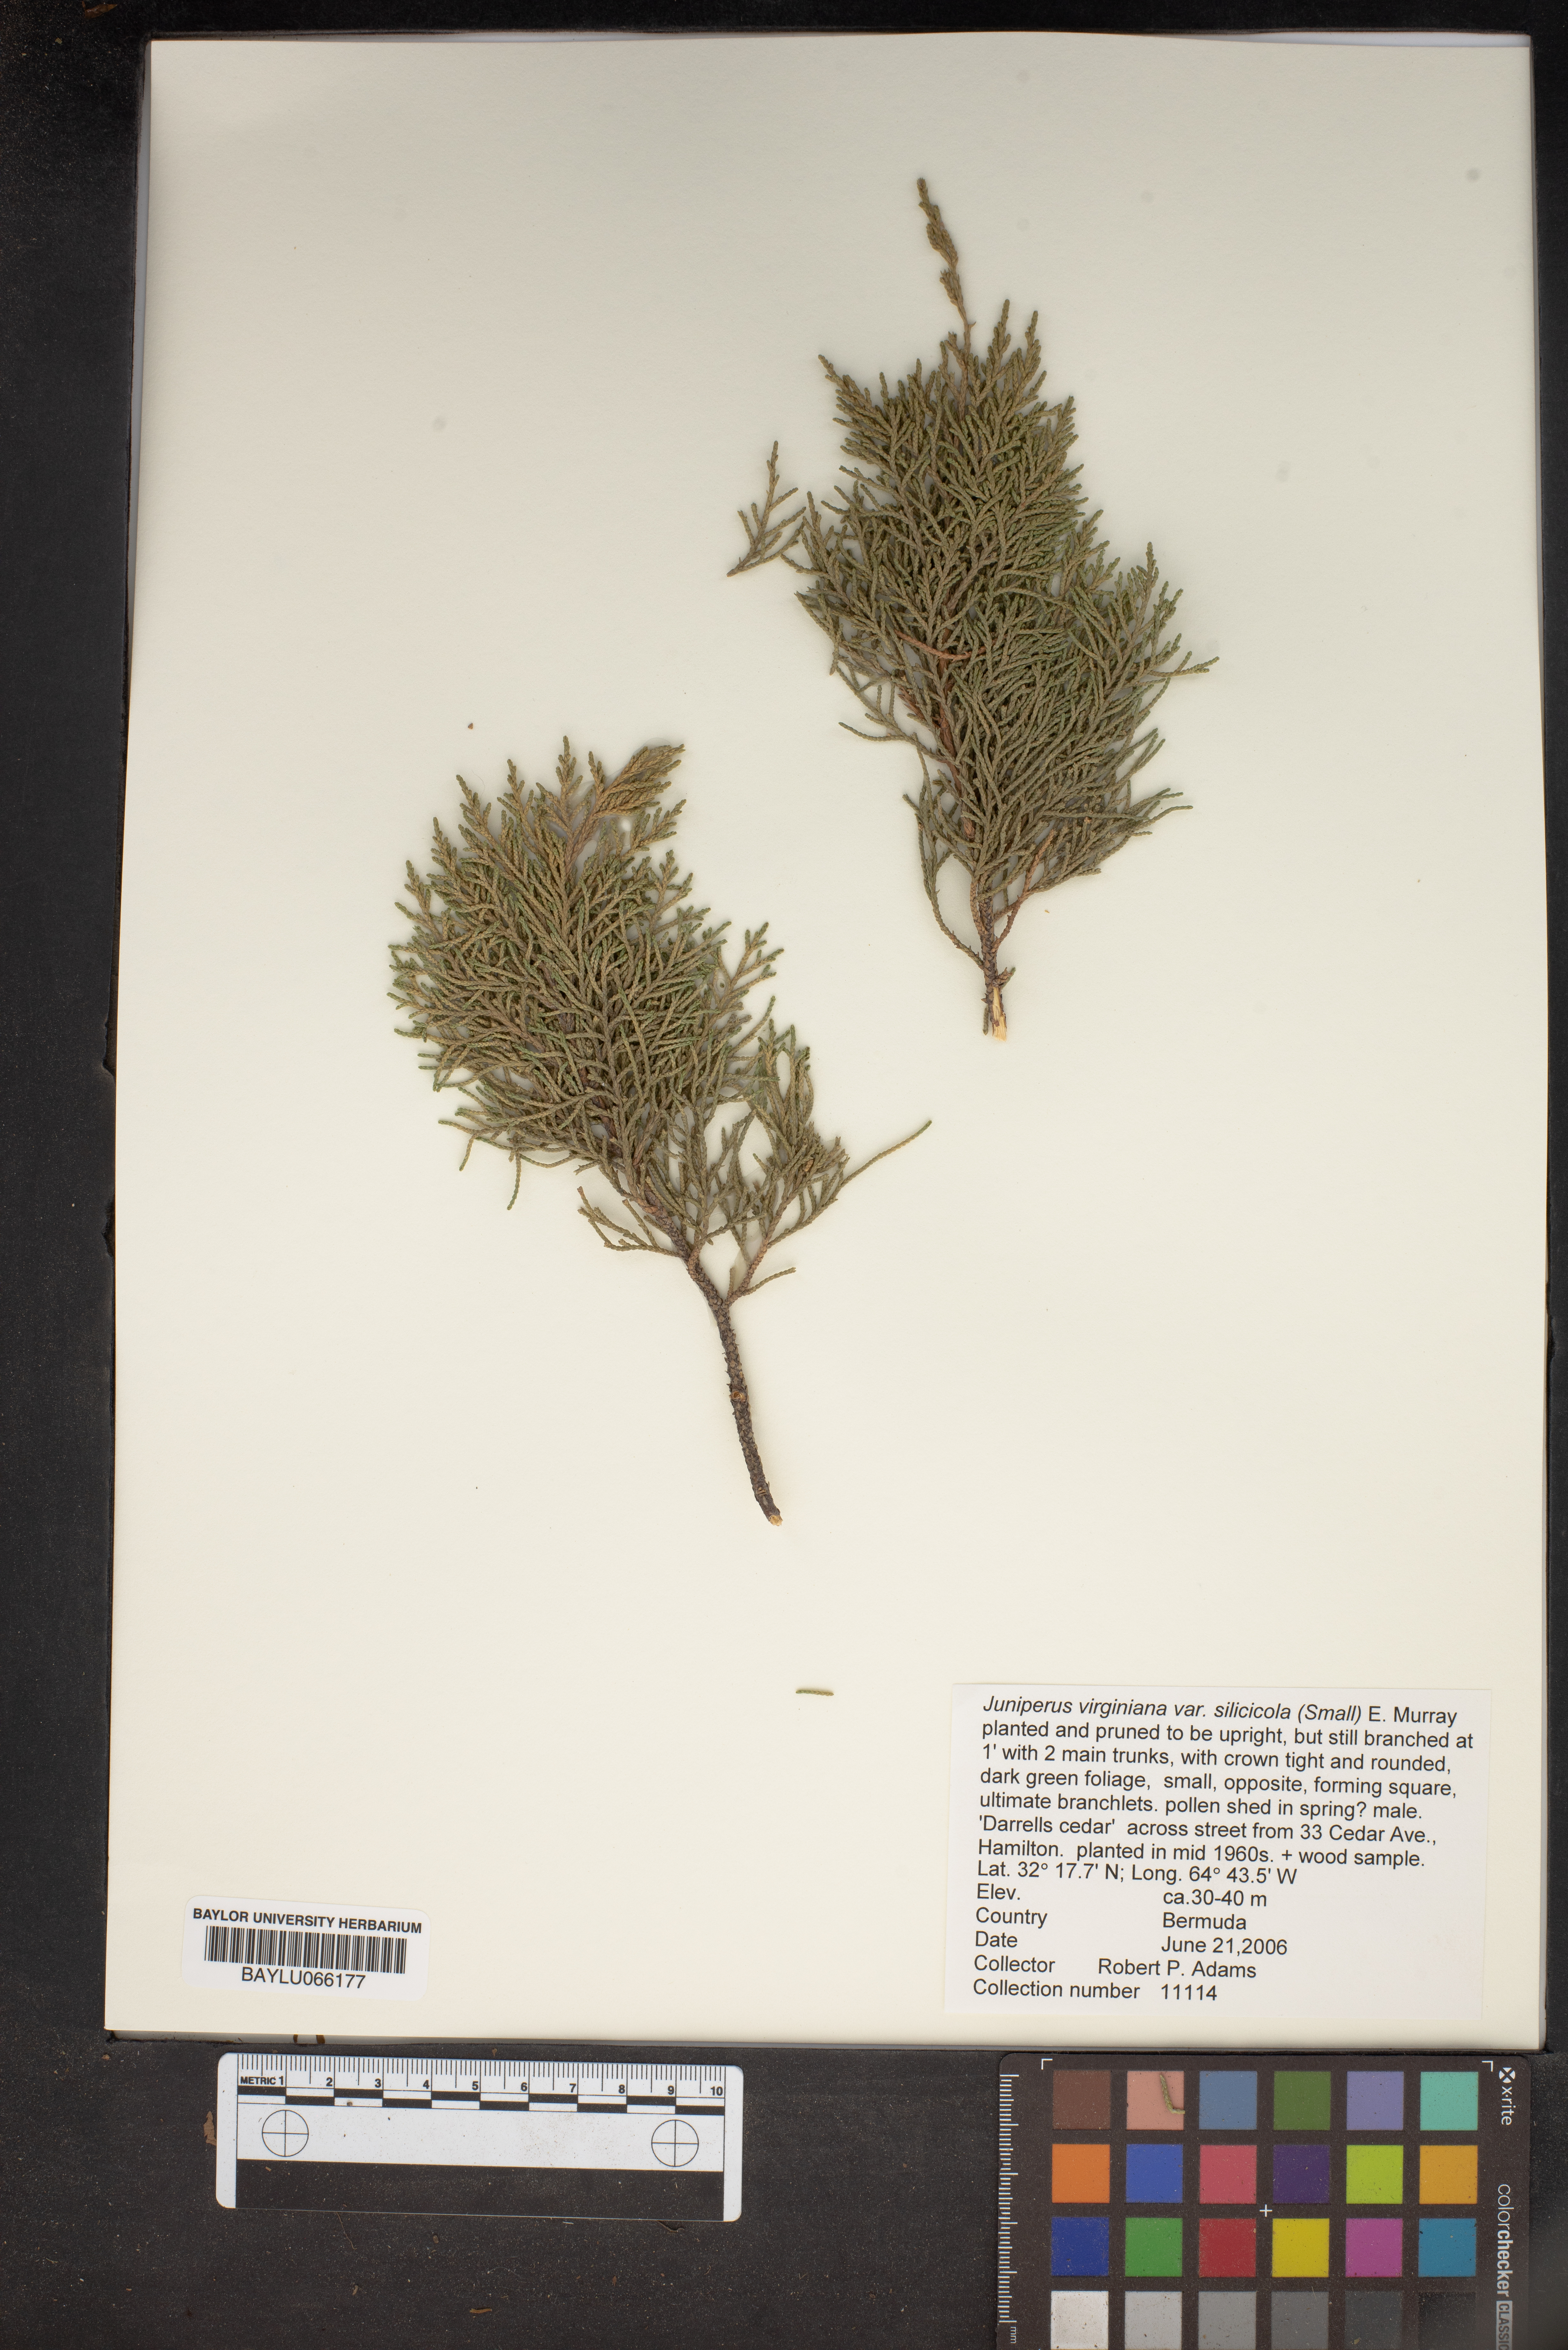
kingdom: Plantae
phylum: Tracheophyta
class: Pinopsida
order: Pinales
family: Cupressaceae
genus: Juniperus
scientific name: Juniperus virginiana
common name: Red juniper
